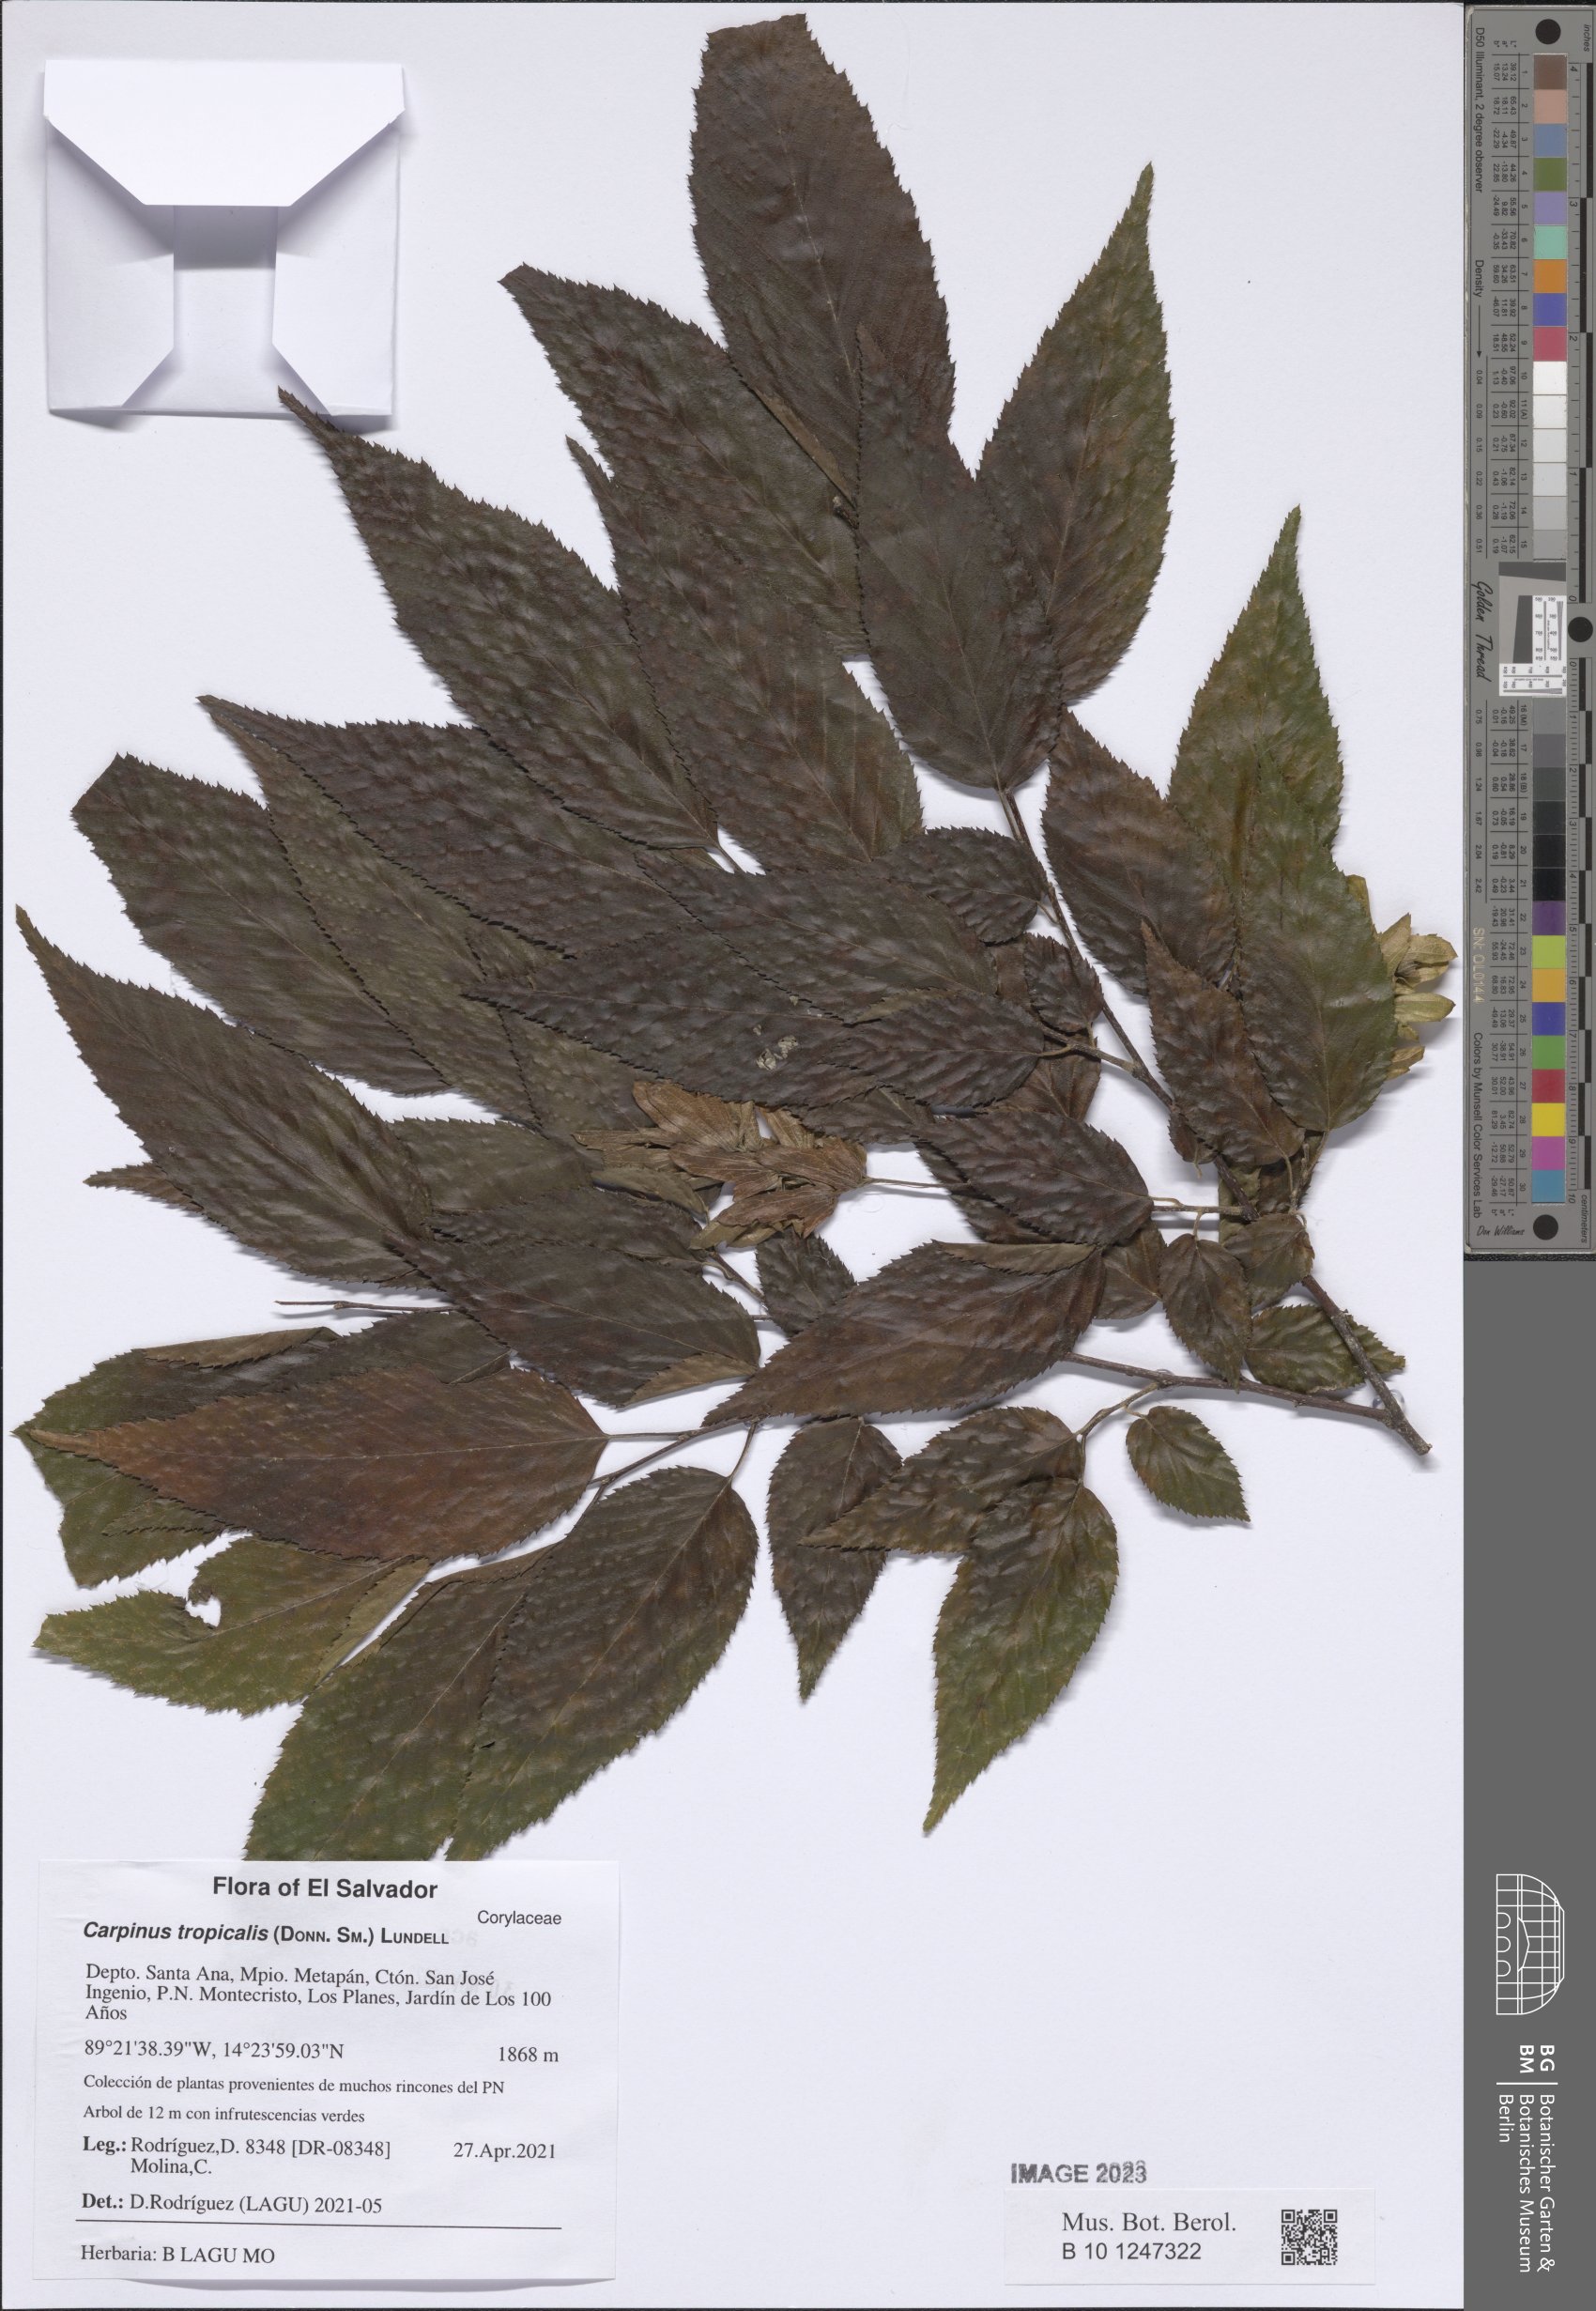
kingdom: Plantae
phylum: Tracheophyta
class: Magnoliopsida
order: Fagales
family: Betulaceae
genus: Carpinus
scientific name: Carpinus tropicalis
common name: Hornbeam
